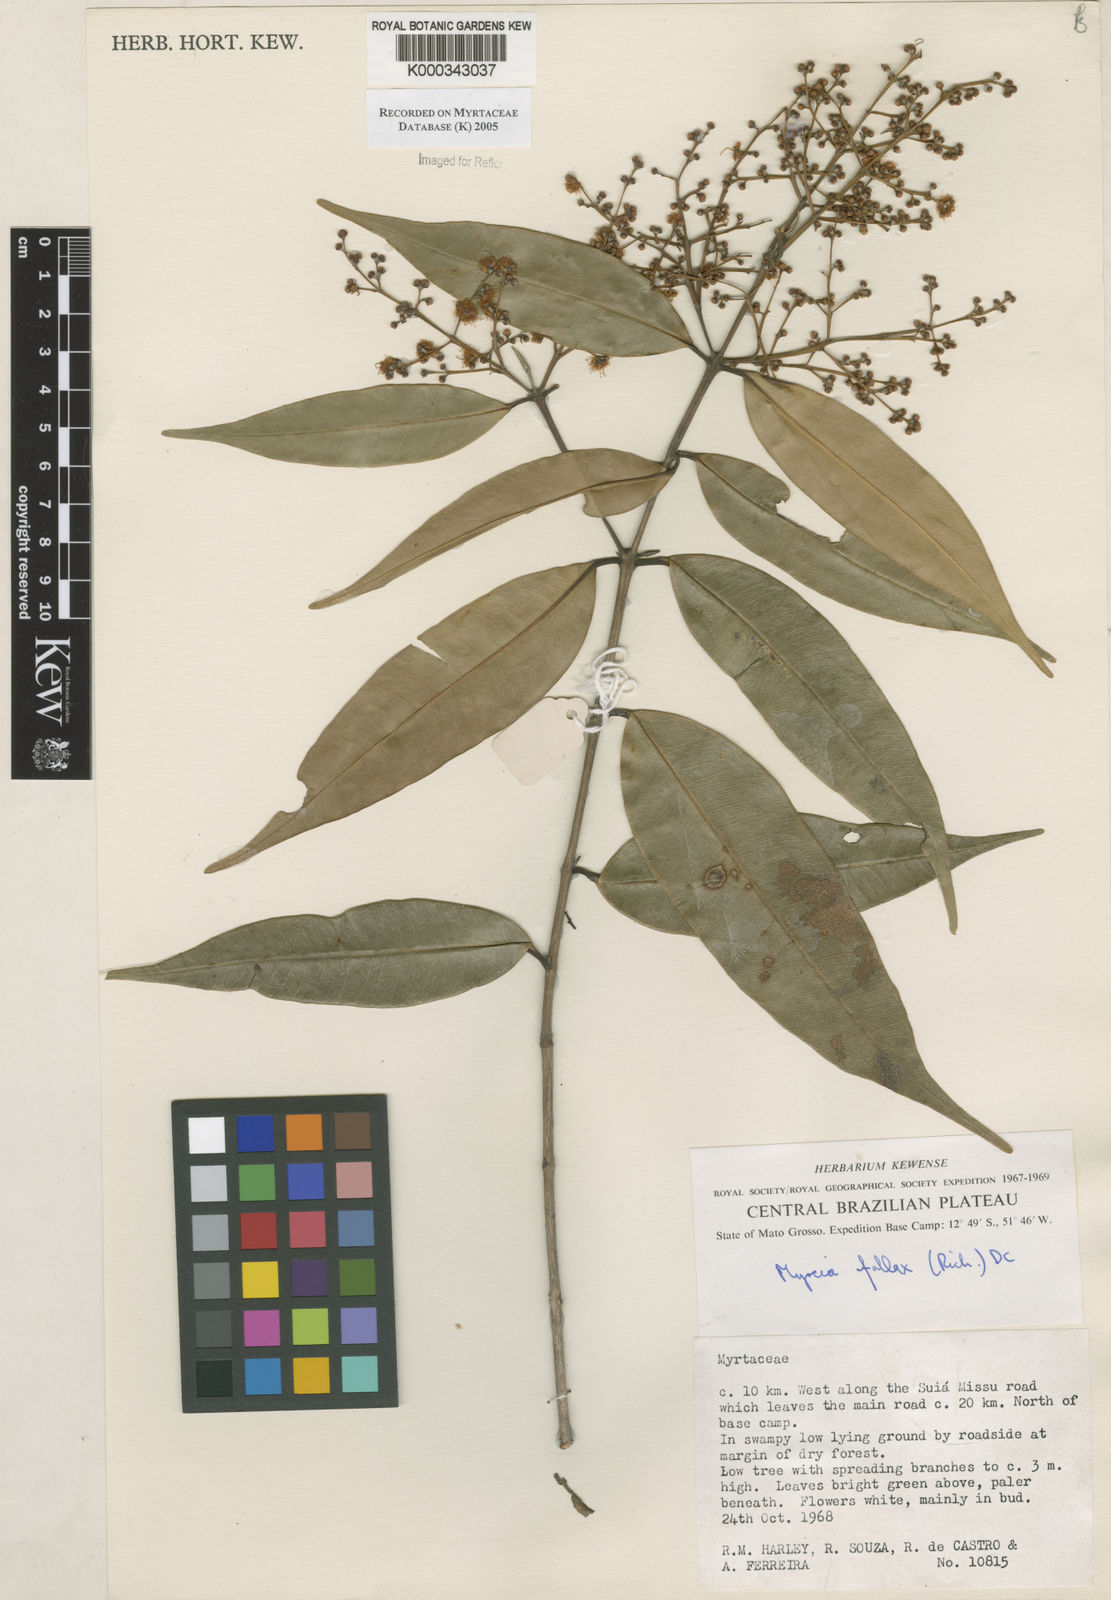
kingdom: Plantae
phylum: Tracheophyta
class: Magnoliopsida
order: Myrtales
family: Myrtaceae
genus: Myrcia
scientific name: Myrcia splendens
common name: Surinam cherry
